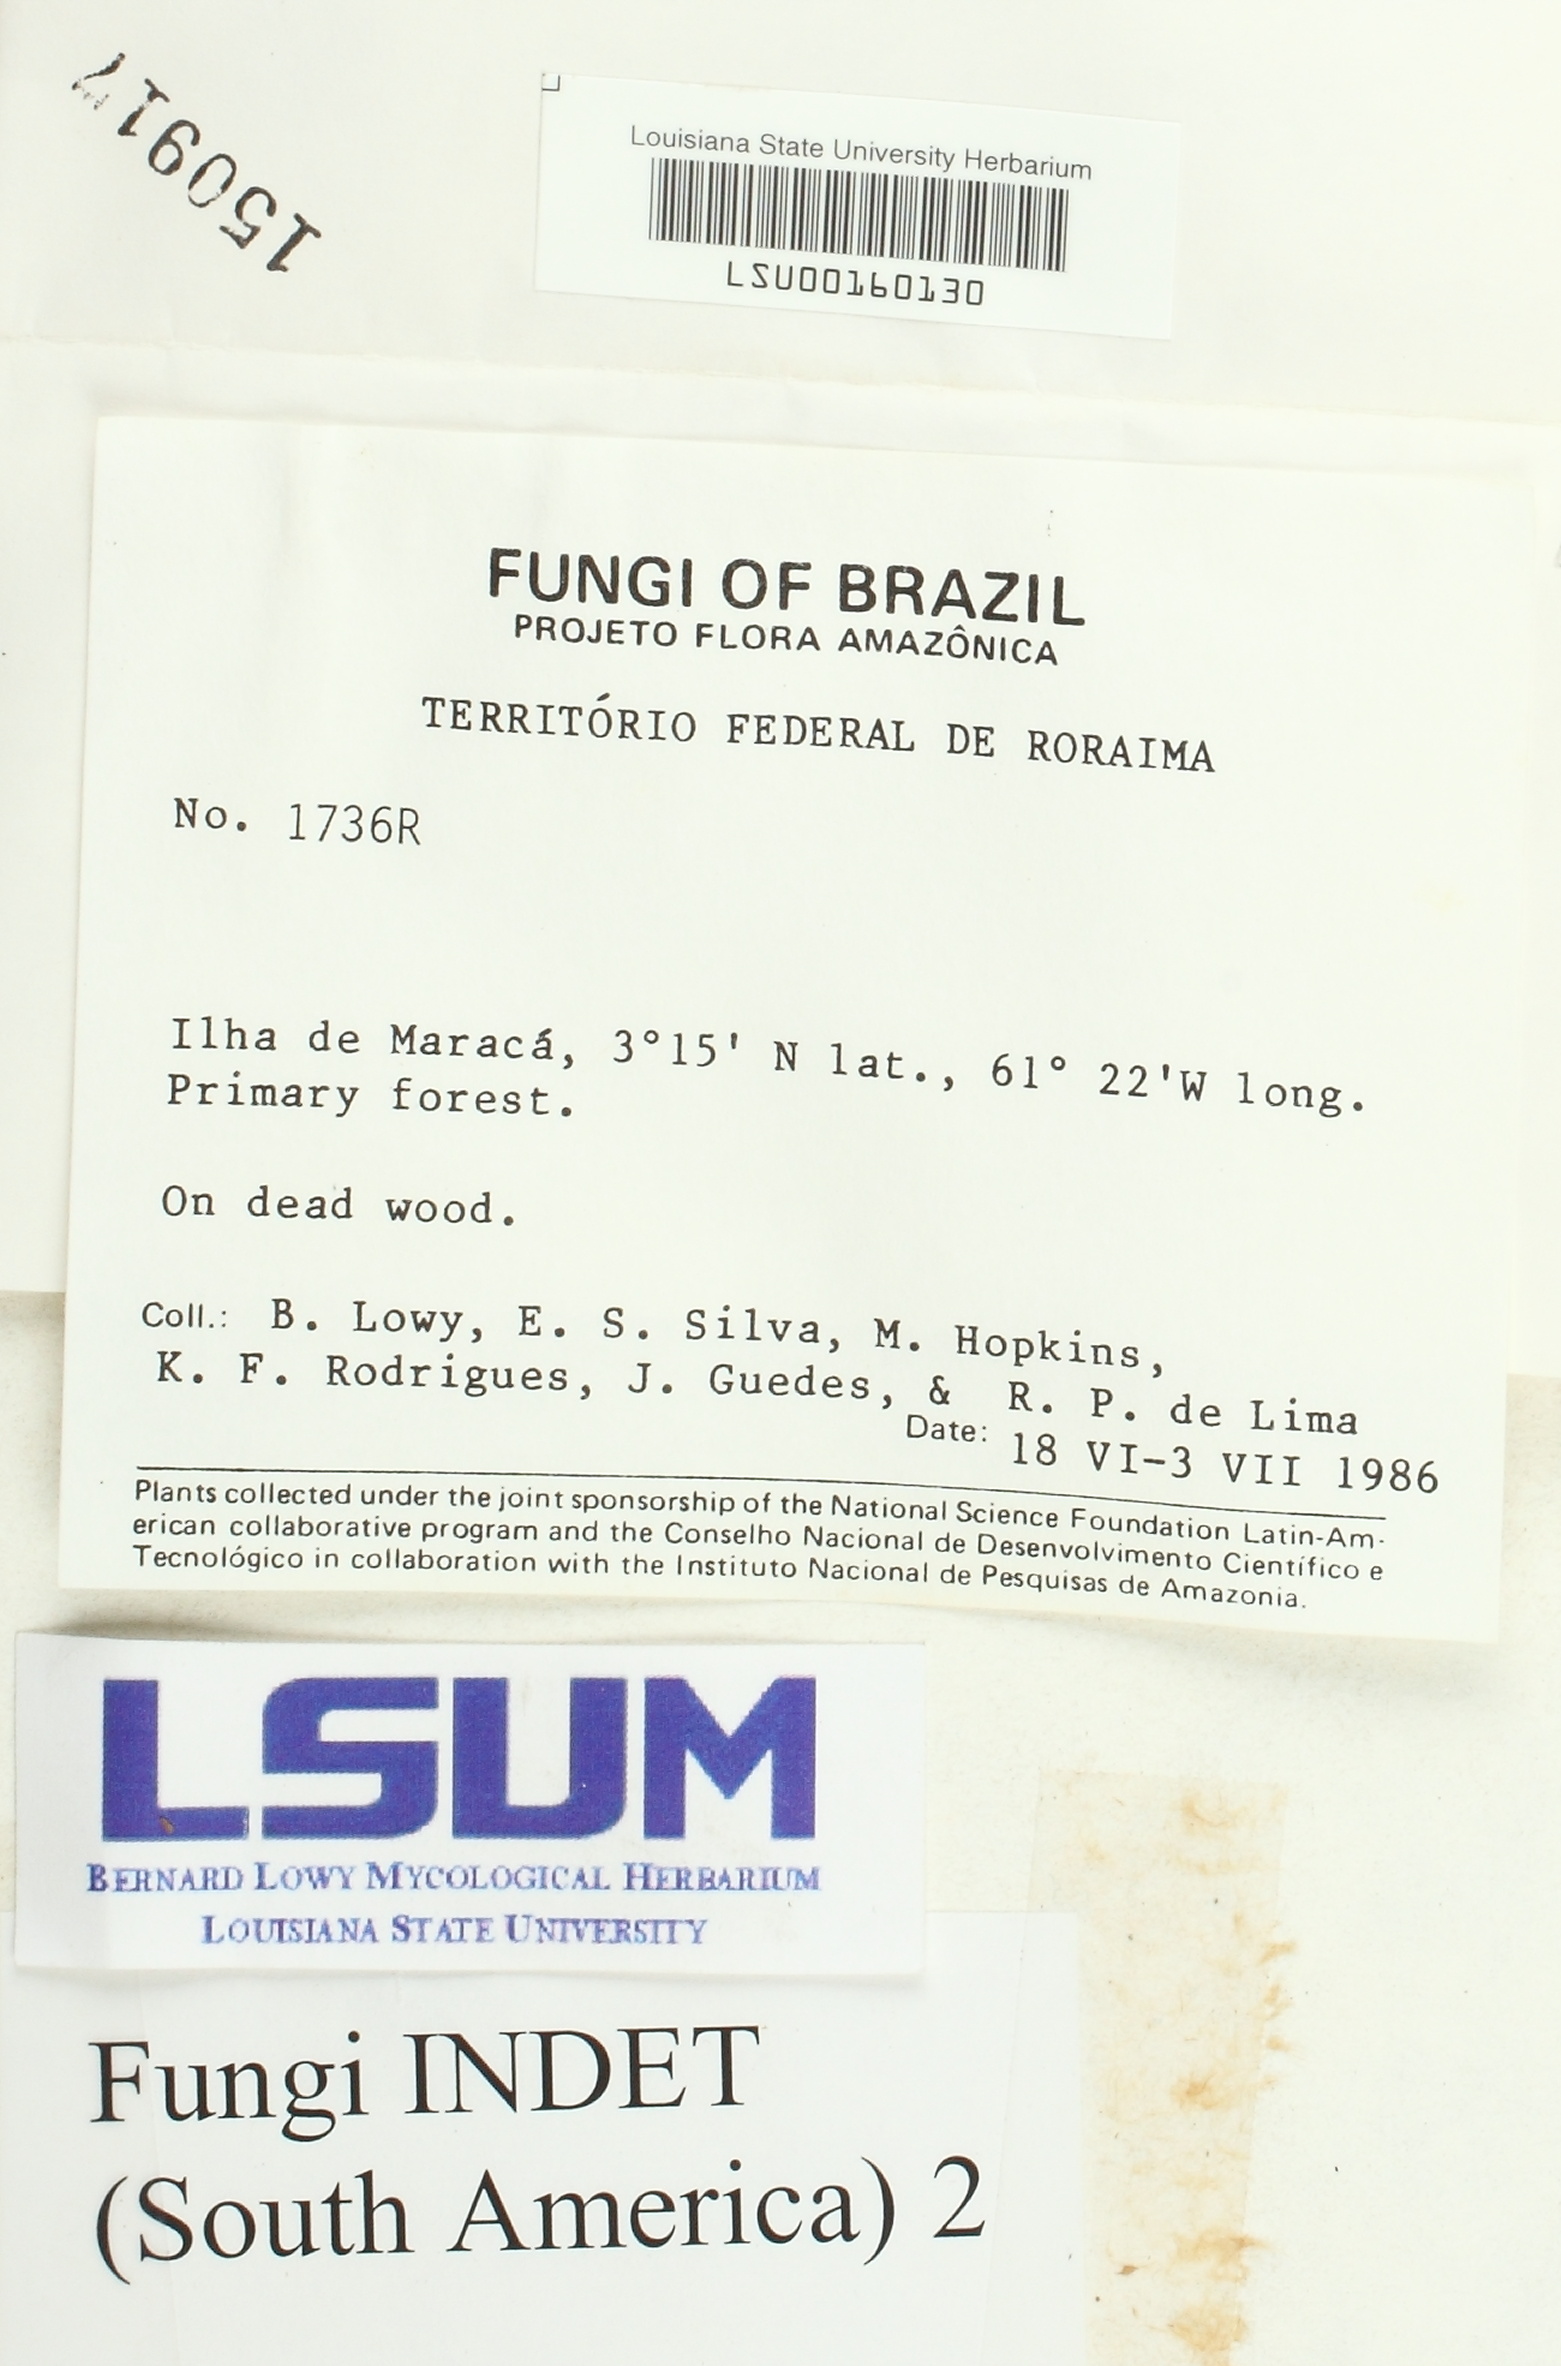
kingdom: Fungi
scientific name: Fungi
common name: Fungi
